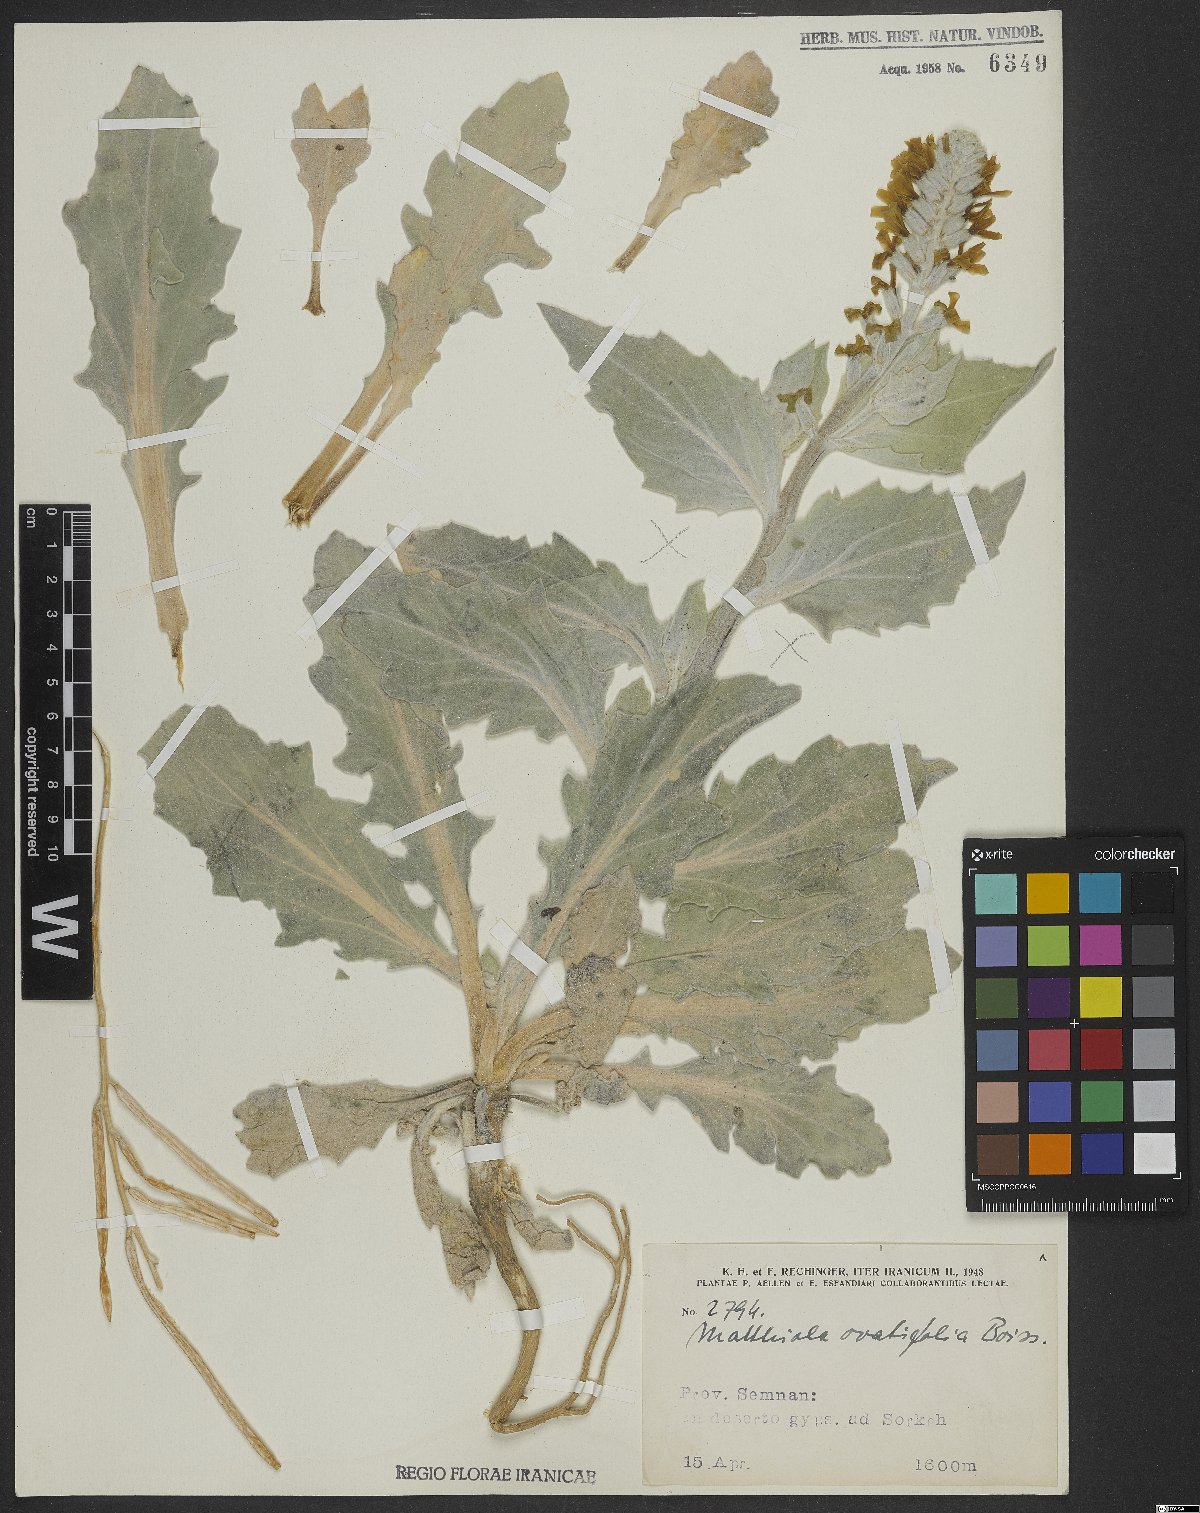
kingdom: Plantae
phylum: Tracheophyta
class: Magnoliopsida
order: Brassicales
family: Brassicaceae
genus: Matthiola
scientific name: Matthiola ovatifolia
